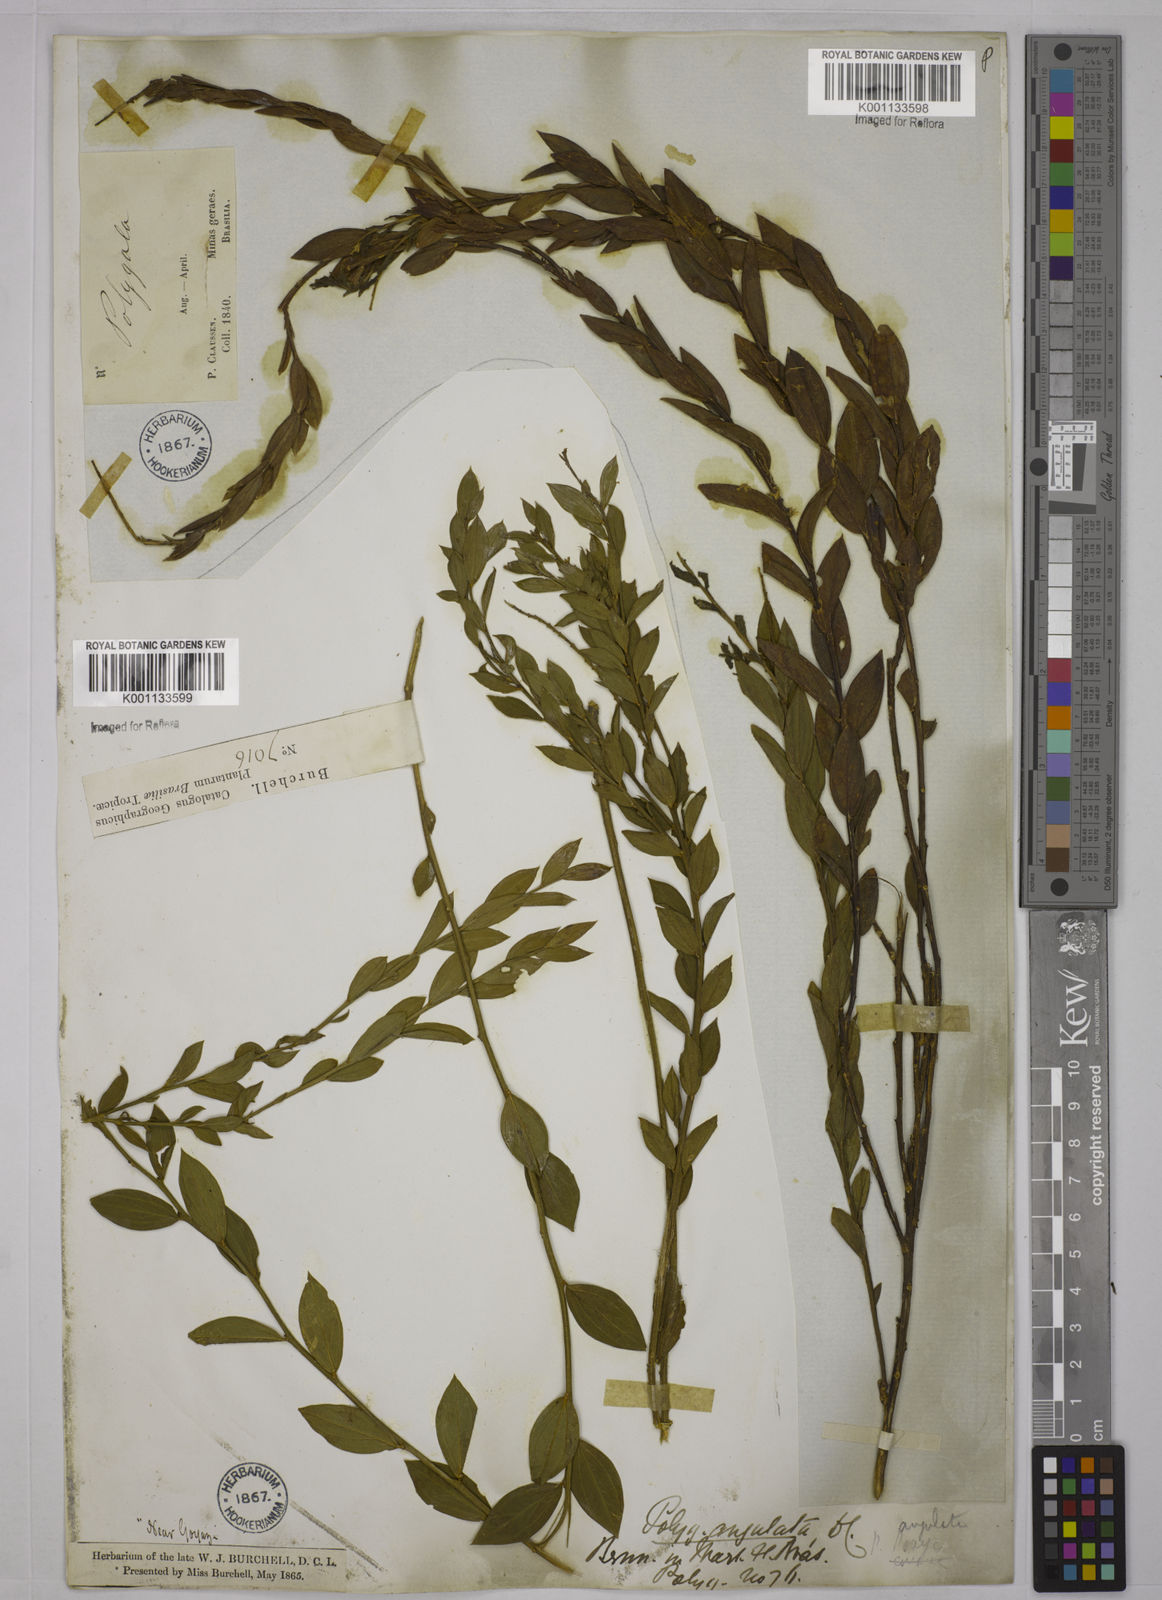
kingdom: Plantae
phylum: Tracheophyta
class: Magnoliopsida
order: Fabales
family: Polygalaceae
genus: Polygala
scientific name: Polygala poaya
